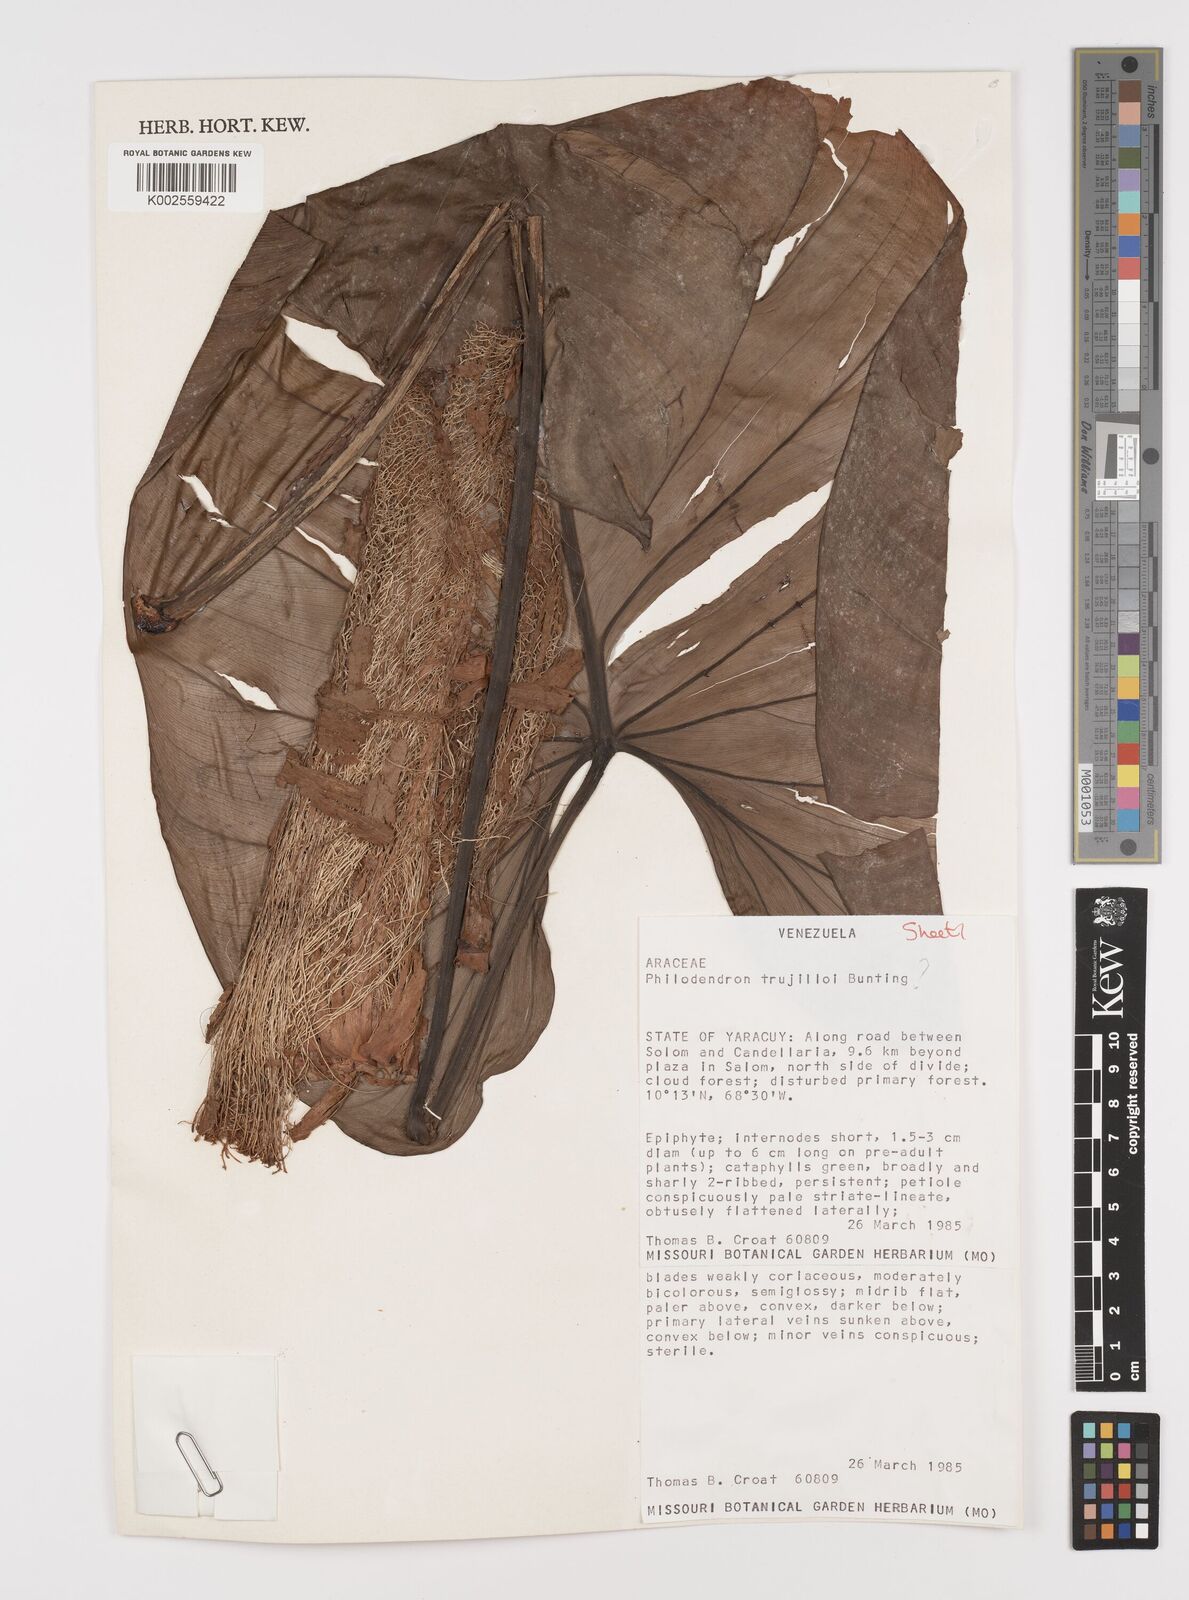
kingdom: Plantae
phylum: Tracheophyta
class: Liliopsida
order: Alismatales
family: Araceae
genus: Philodendron
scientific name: Philodendron trujilloi
